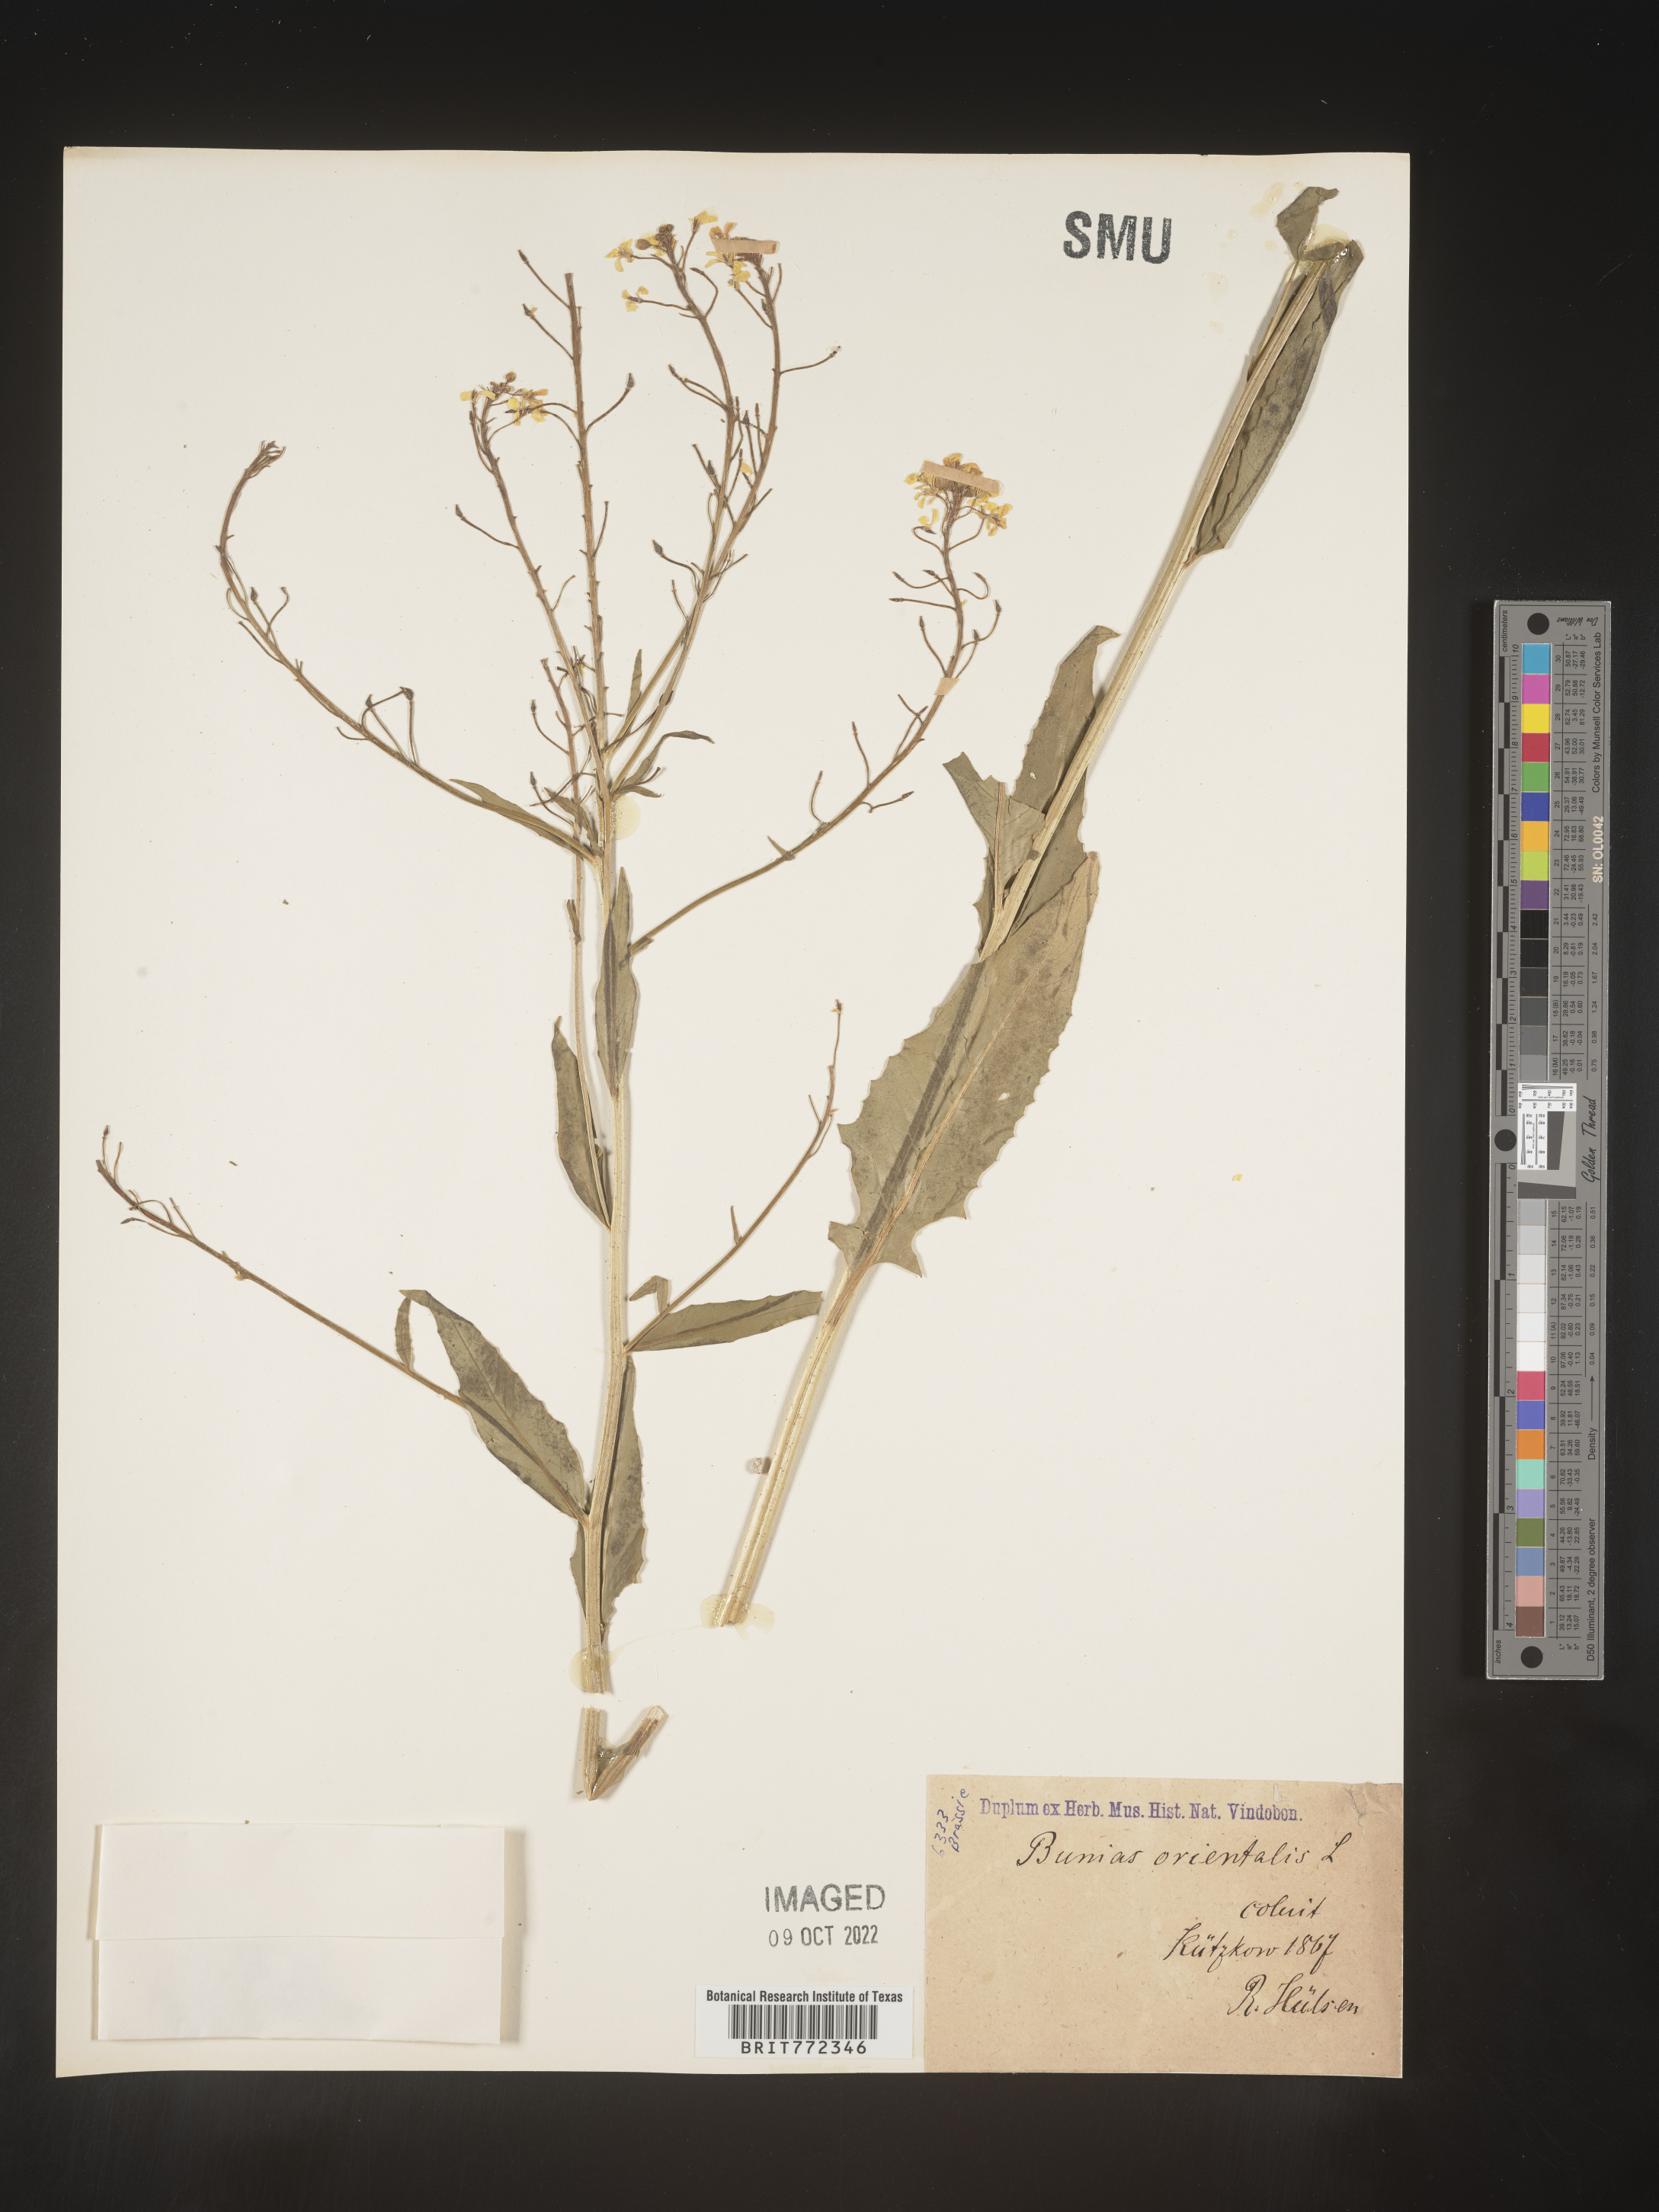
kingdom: Plantae
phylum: Tracheophyta
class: Magnoliopsida
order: Brassicales
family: Brassicaceae
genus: Bunias
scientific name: Bunias
